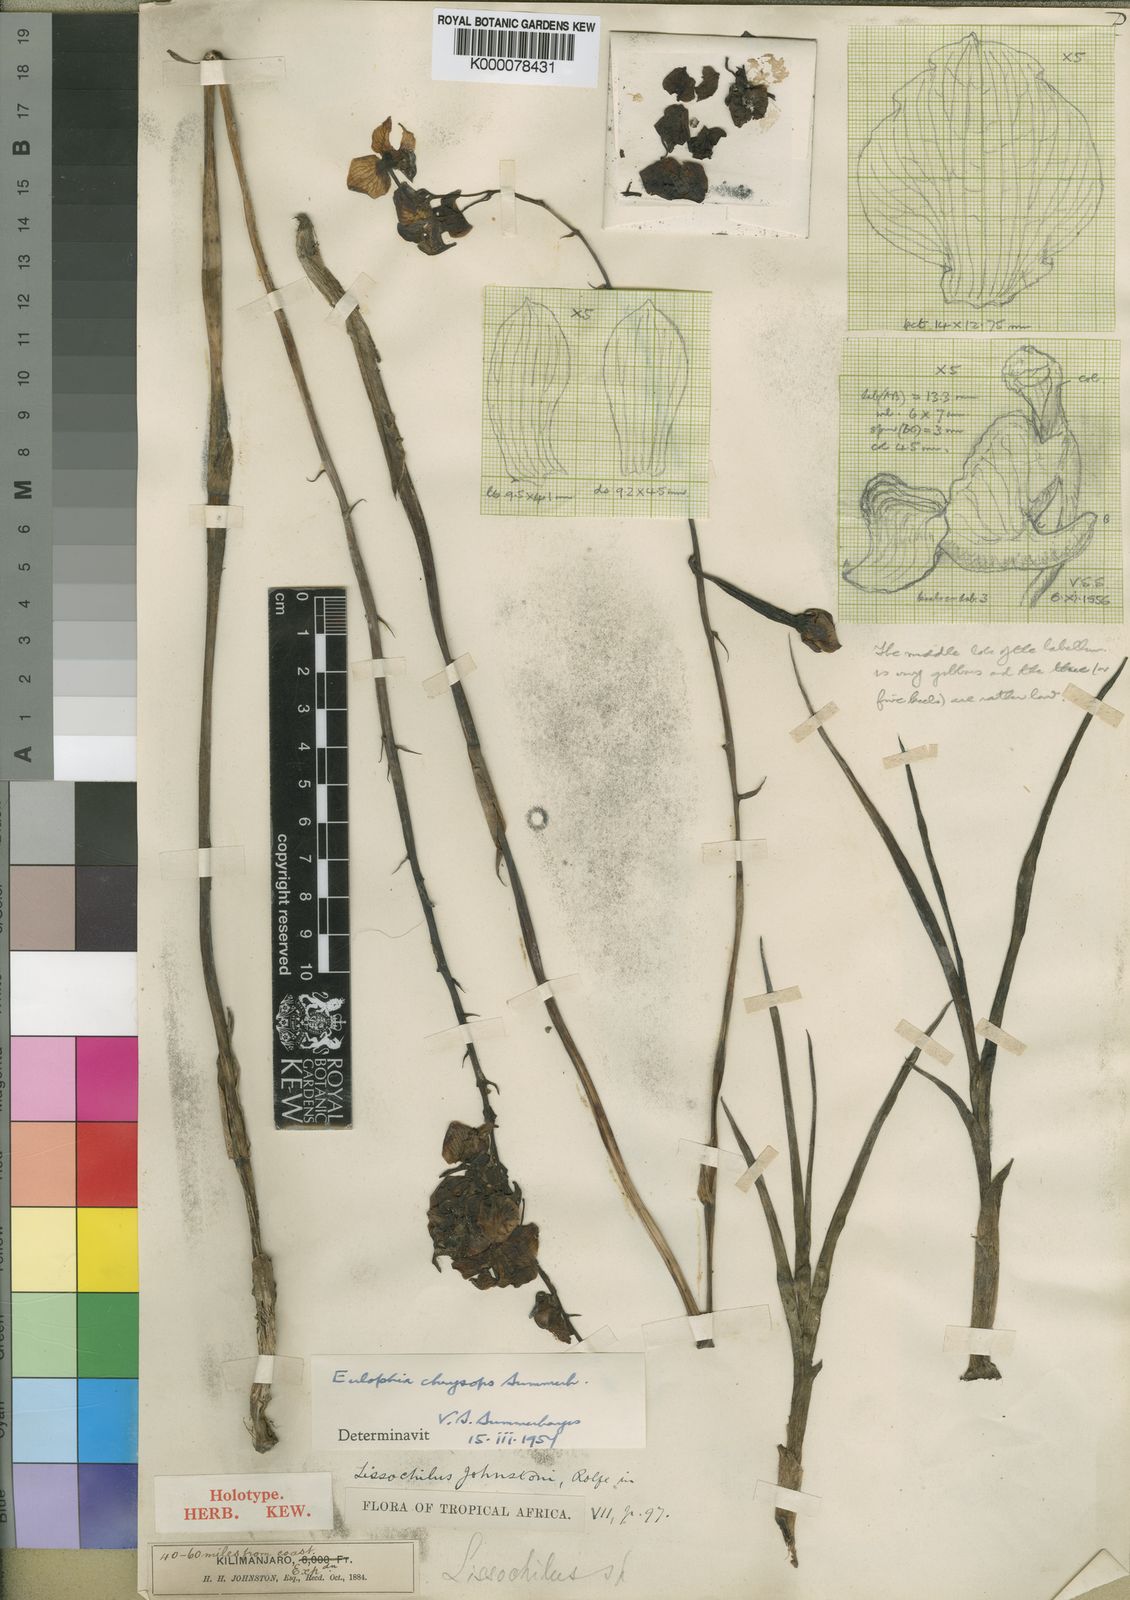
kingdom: Plantae
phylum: Tracheophyta
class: Liliopsida
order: Asparagales
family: Orchidaceae
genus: Eulophia
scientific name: Eulophia schweinfurthii
